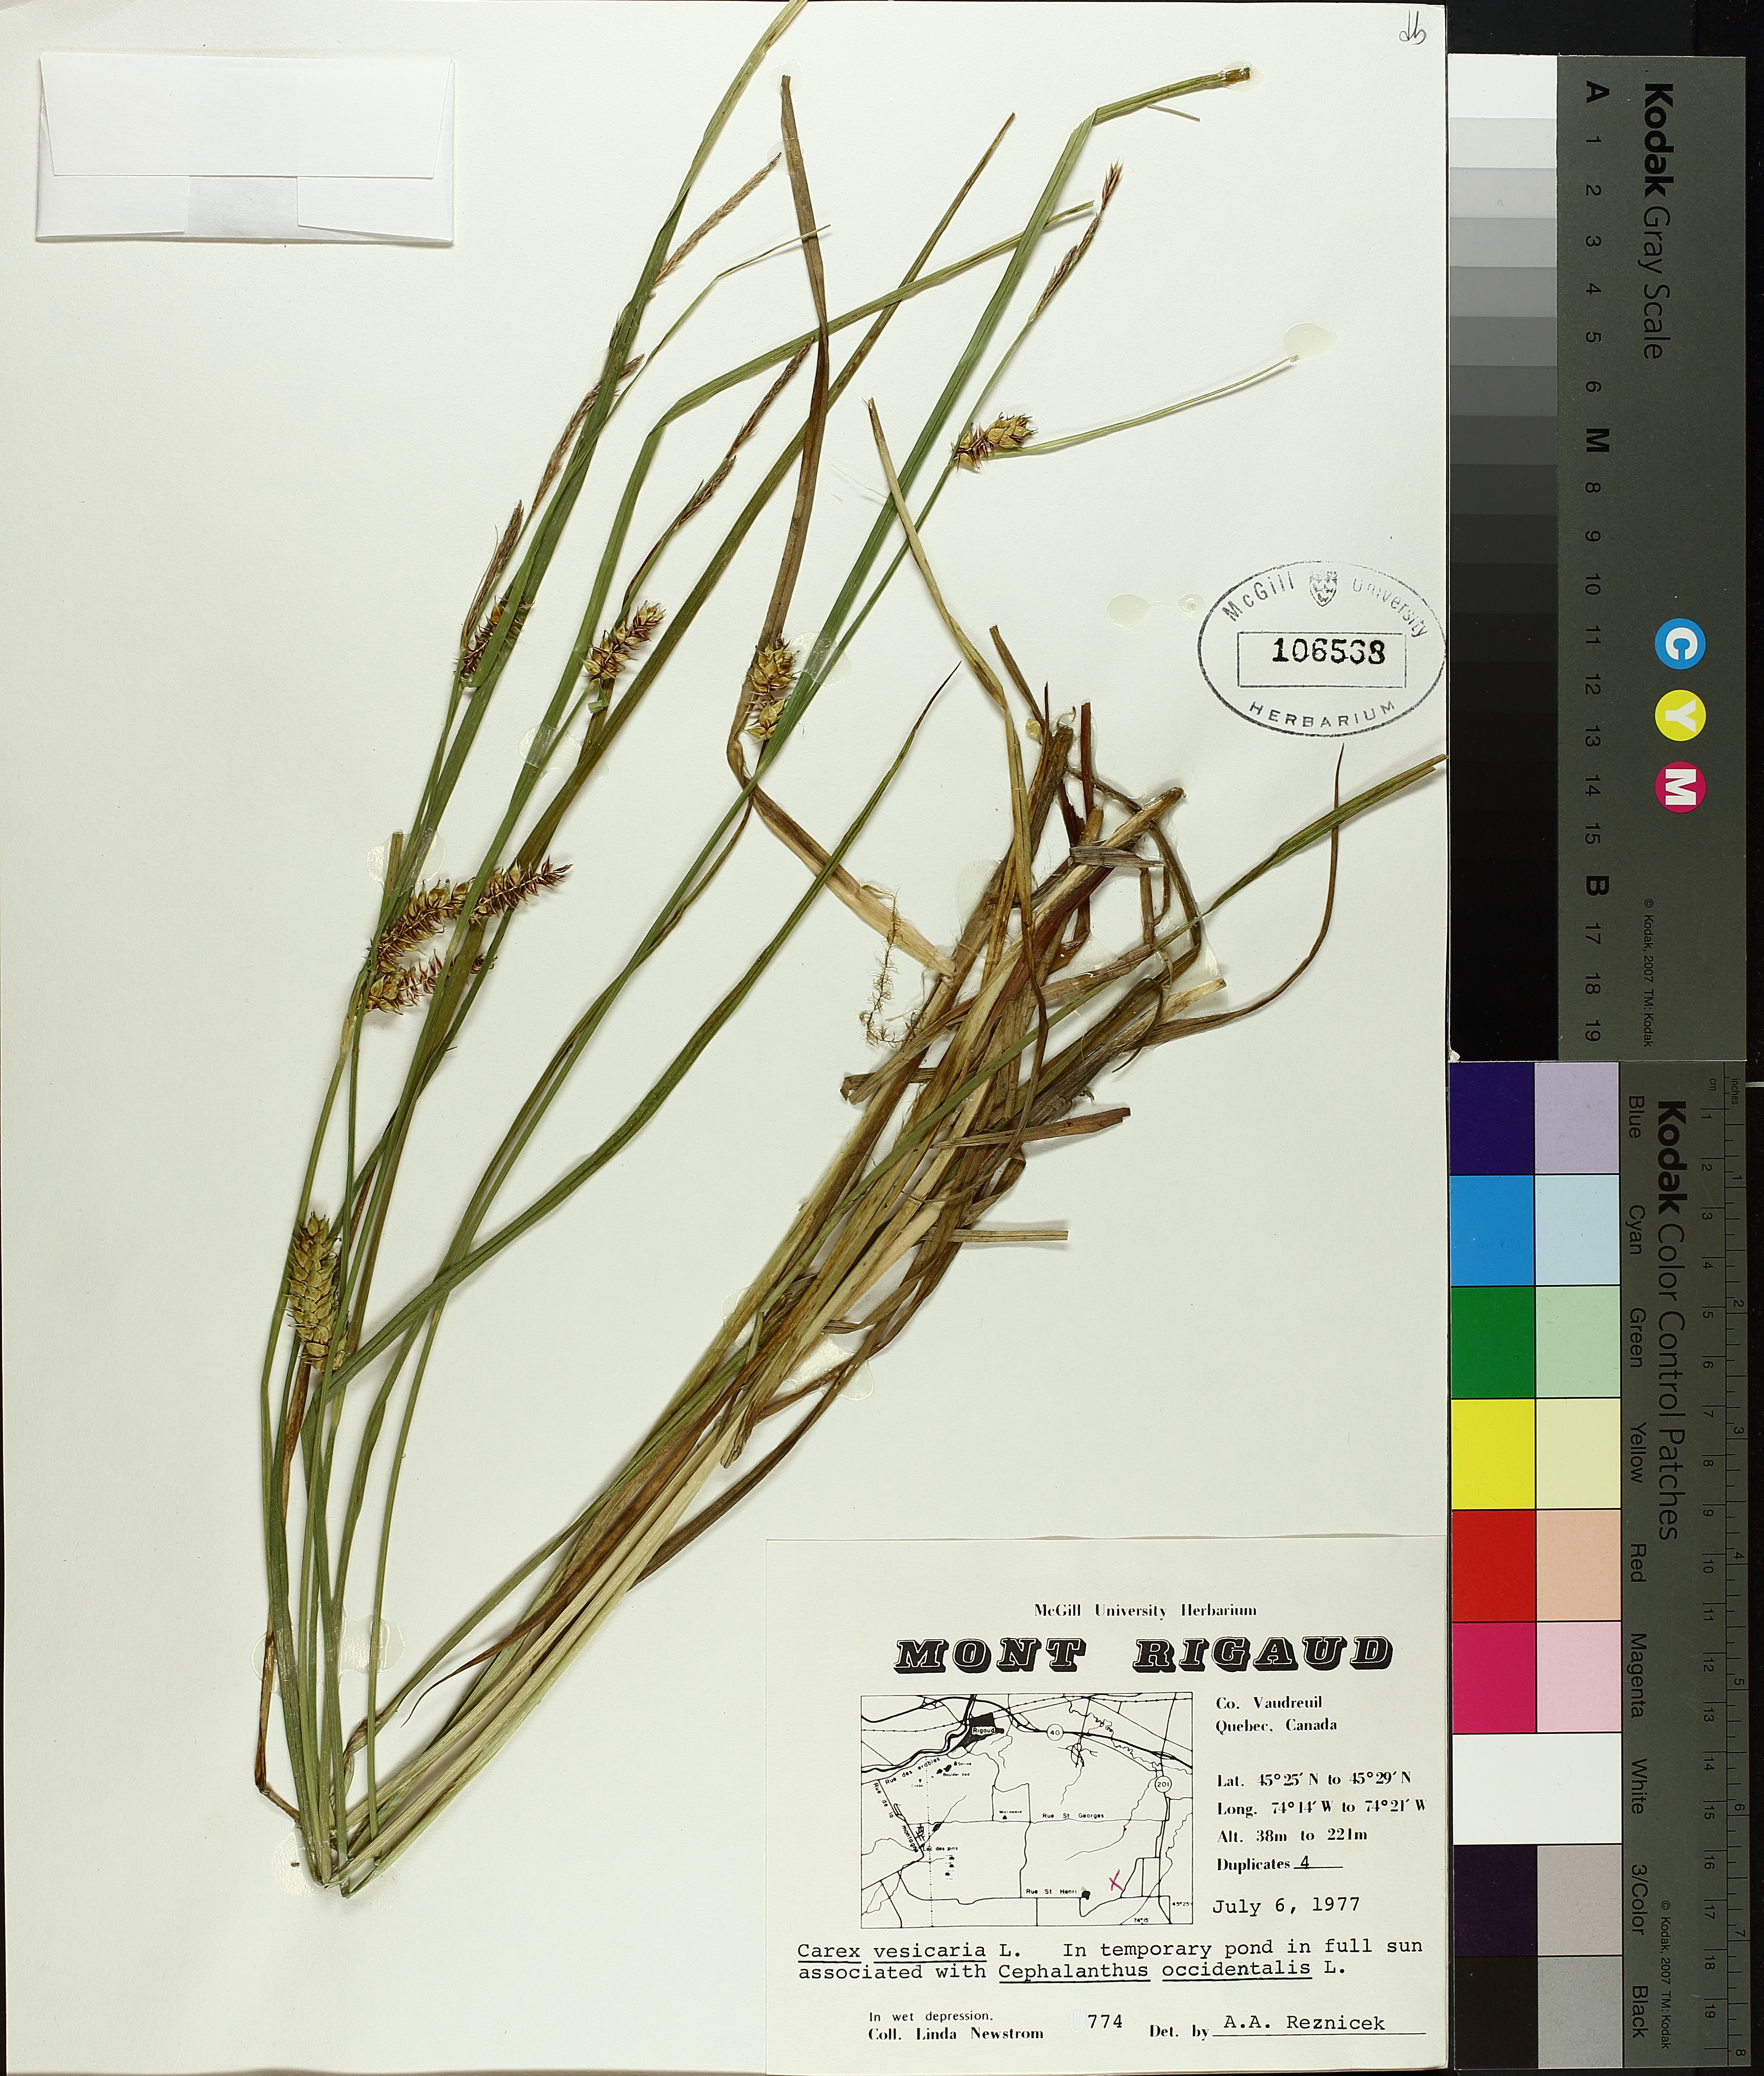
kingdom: Plantae
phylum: Tracheophyta
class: Liliopsida
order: Poales
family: Cyperaceae
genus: Carex
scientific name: Carex vesicaria
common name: Bladder-sedge
